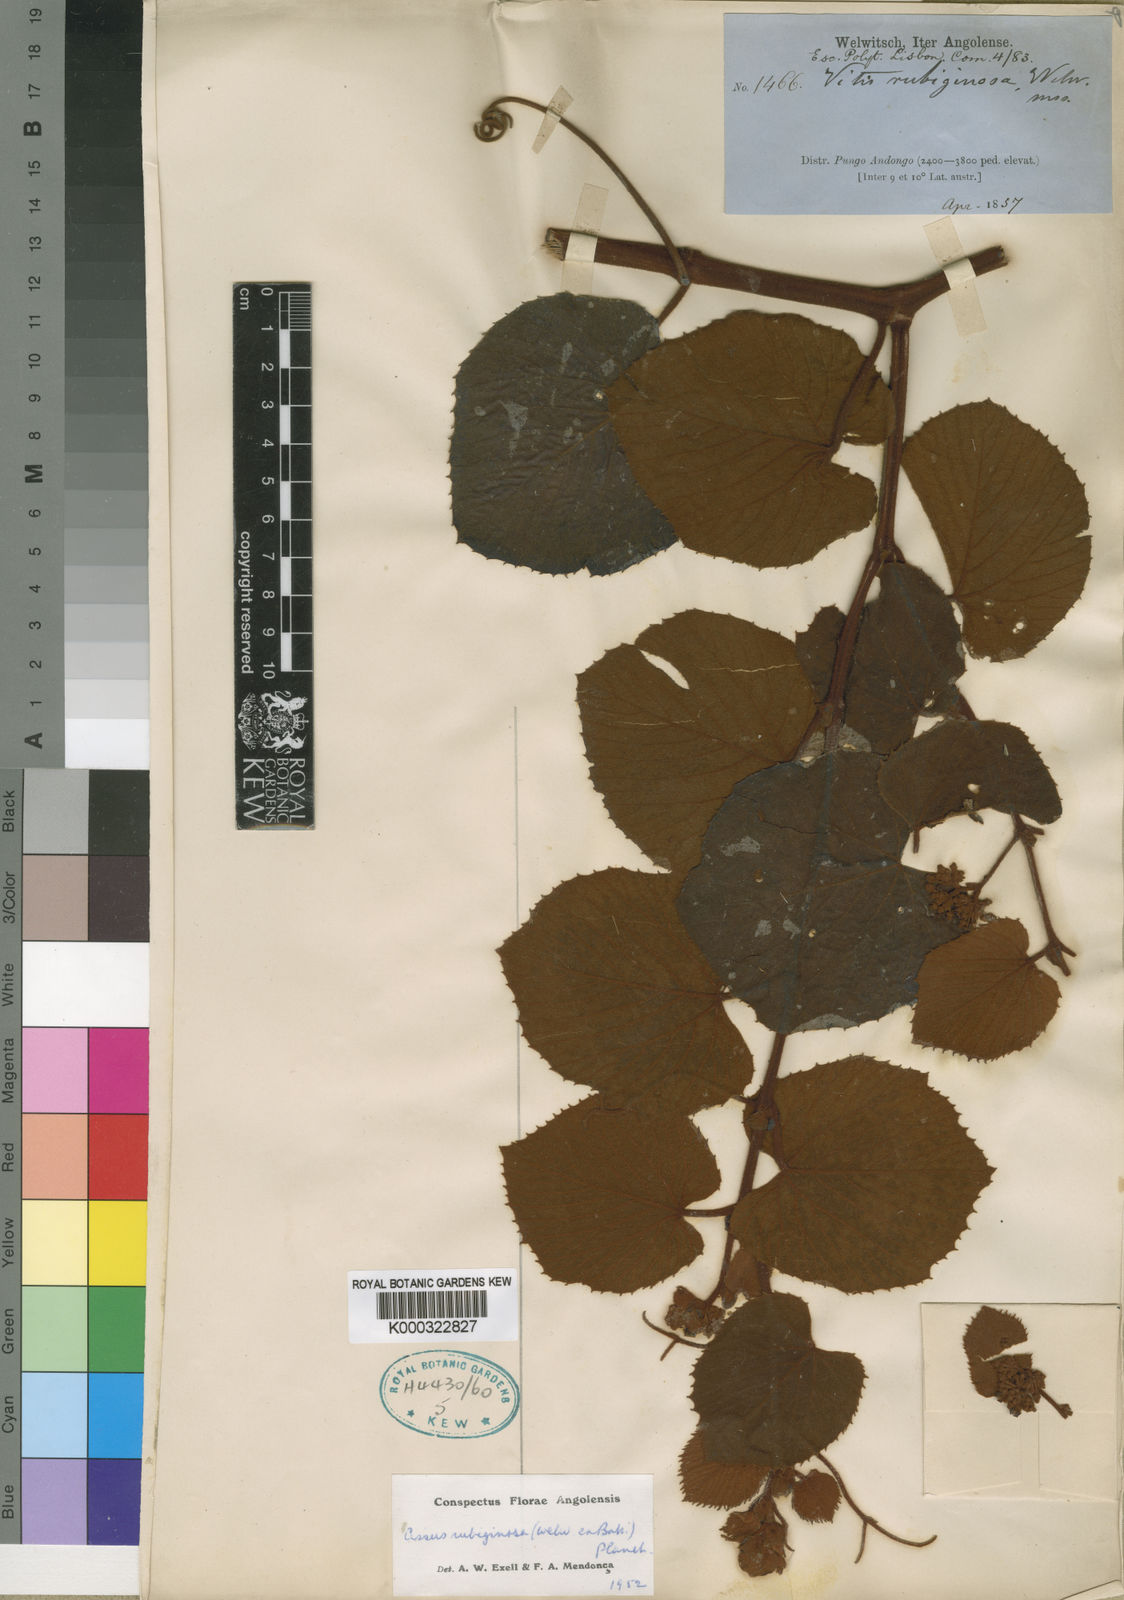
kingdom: Plantae
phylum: Tracheophyta
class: Magnoliopsida
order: Vitales
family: Vitaceae
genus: Cissus
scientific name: Cissus rubiginosa
